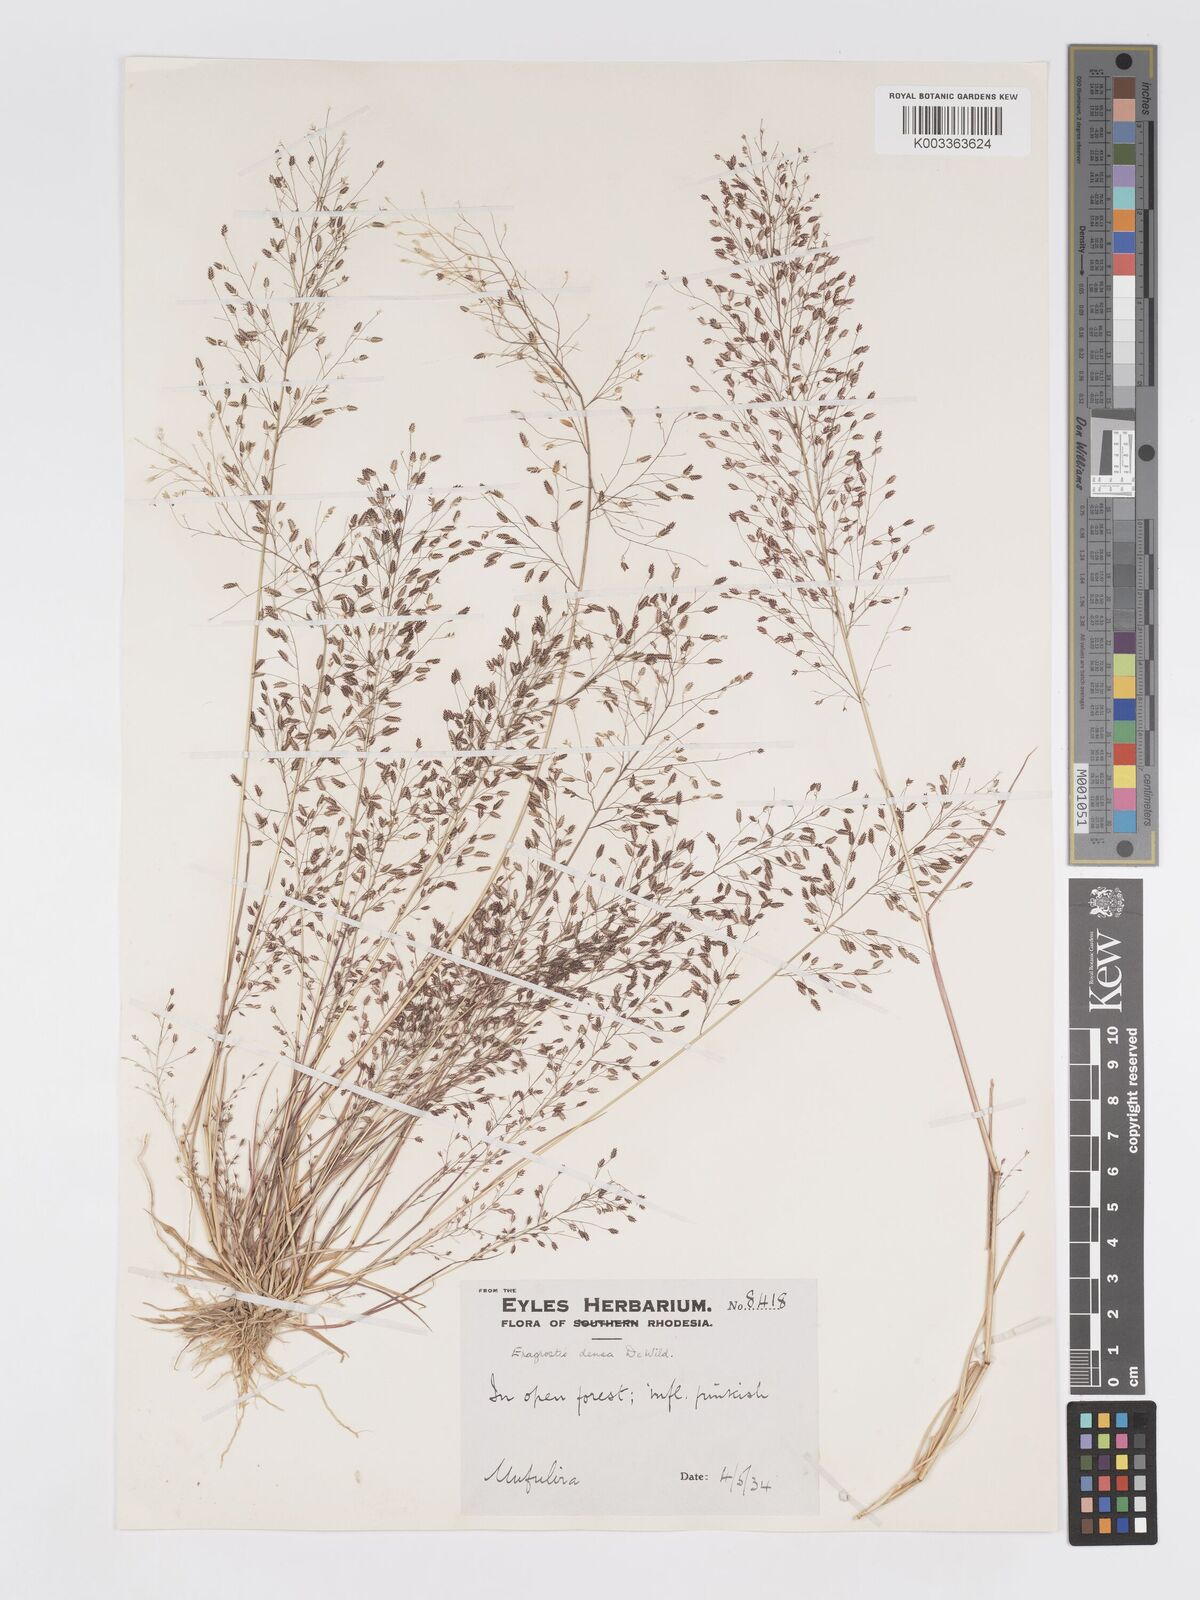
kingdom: Plantae
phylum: Tracheophyta
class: Liliopsida
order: Poales
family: Poaceae
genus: Eragrostis
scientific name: Eragrostis welwitschii
